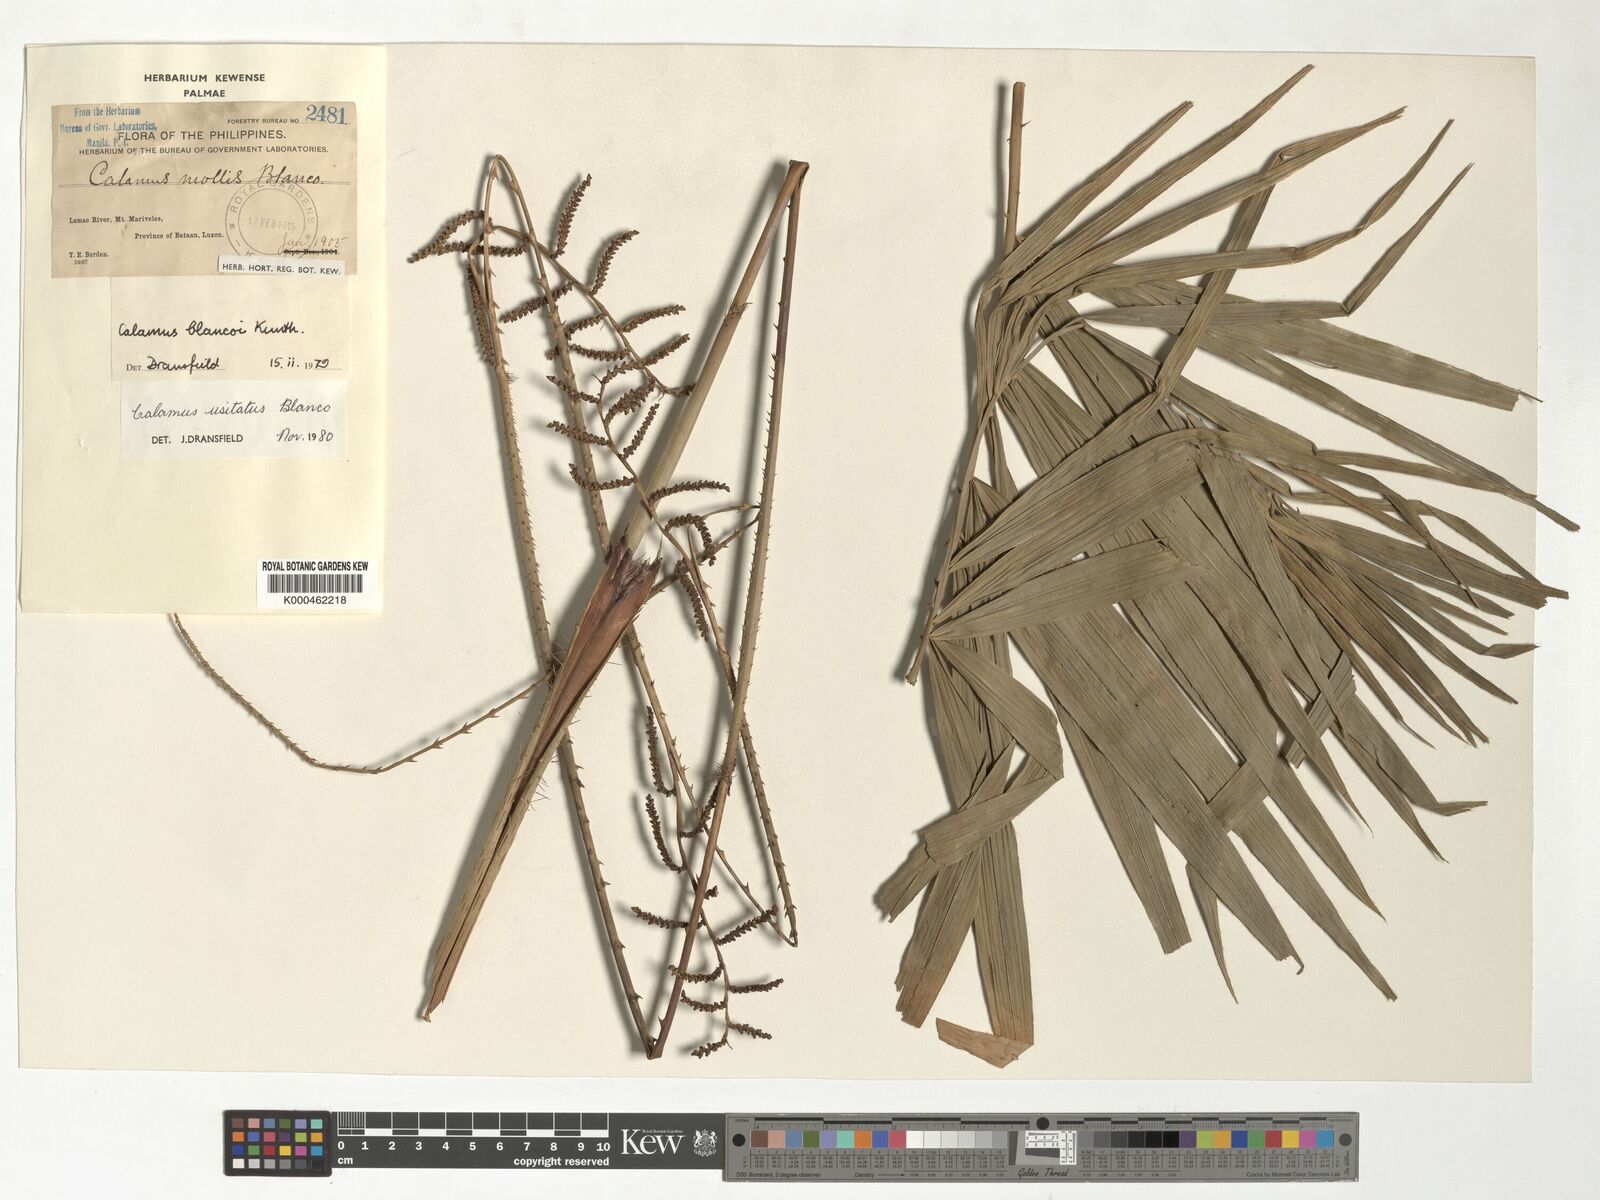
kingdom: Plantae
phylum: Tracheophyta
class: Liliopsida
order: Arecales
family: Arecaceae
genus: Calamus
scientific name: Calamus usitatus
